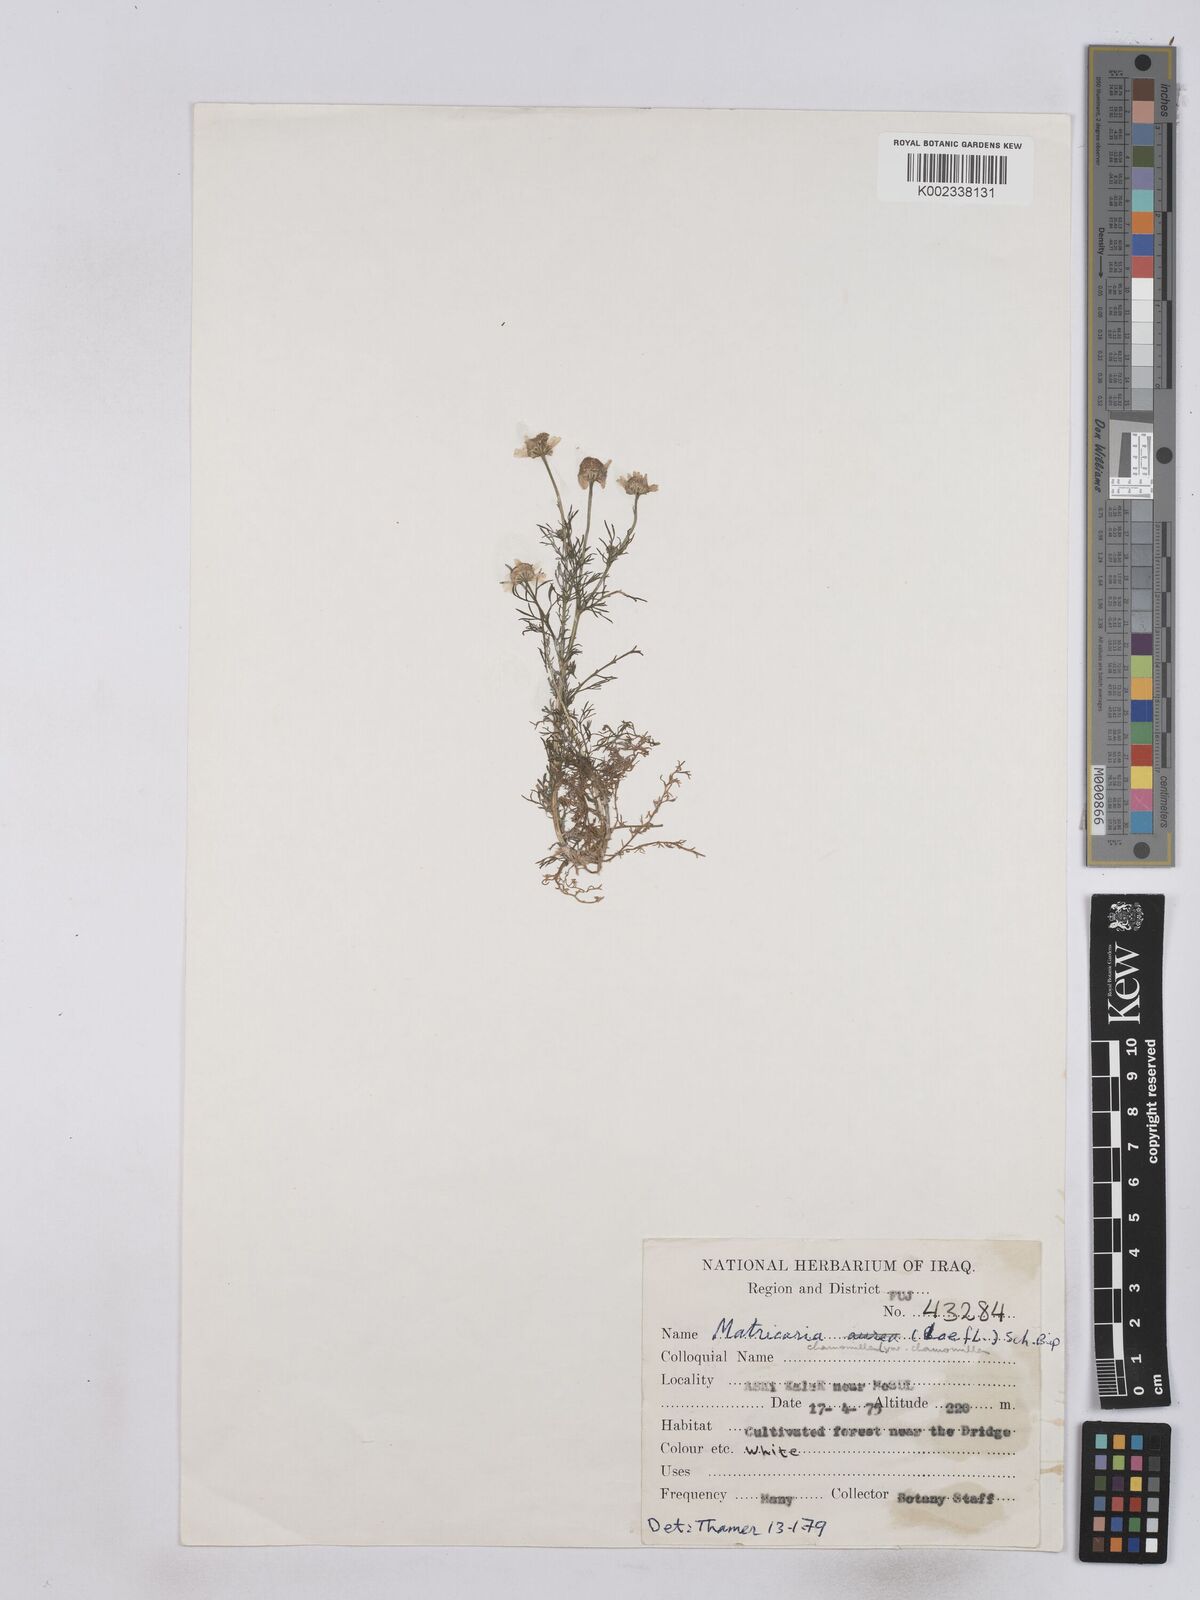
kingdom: Plantae
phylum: Tracheophyta
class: Magnoliopsida
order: Asterales
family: Asteraceae
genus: Matricaria
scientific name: Matricaria chamomilla
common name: Scented mayweed
